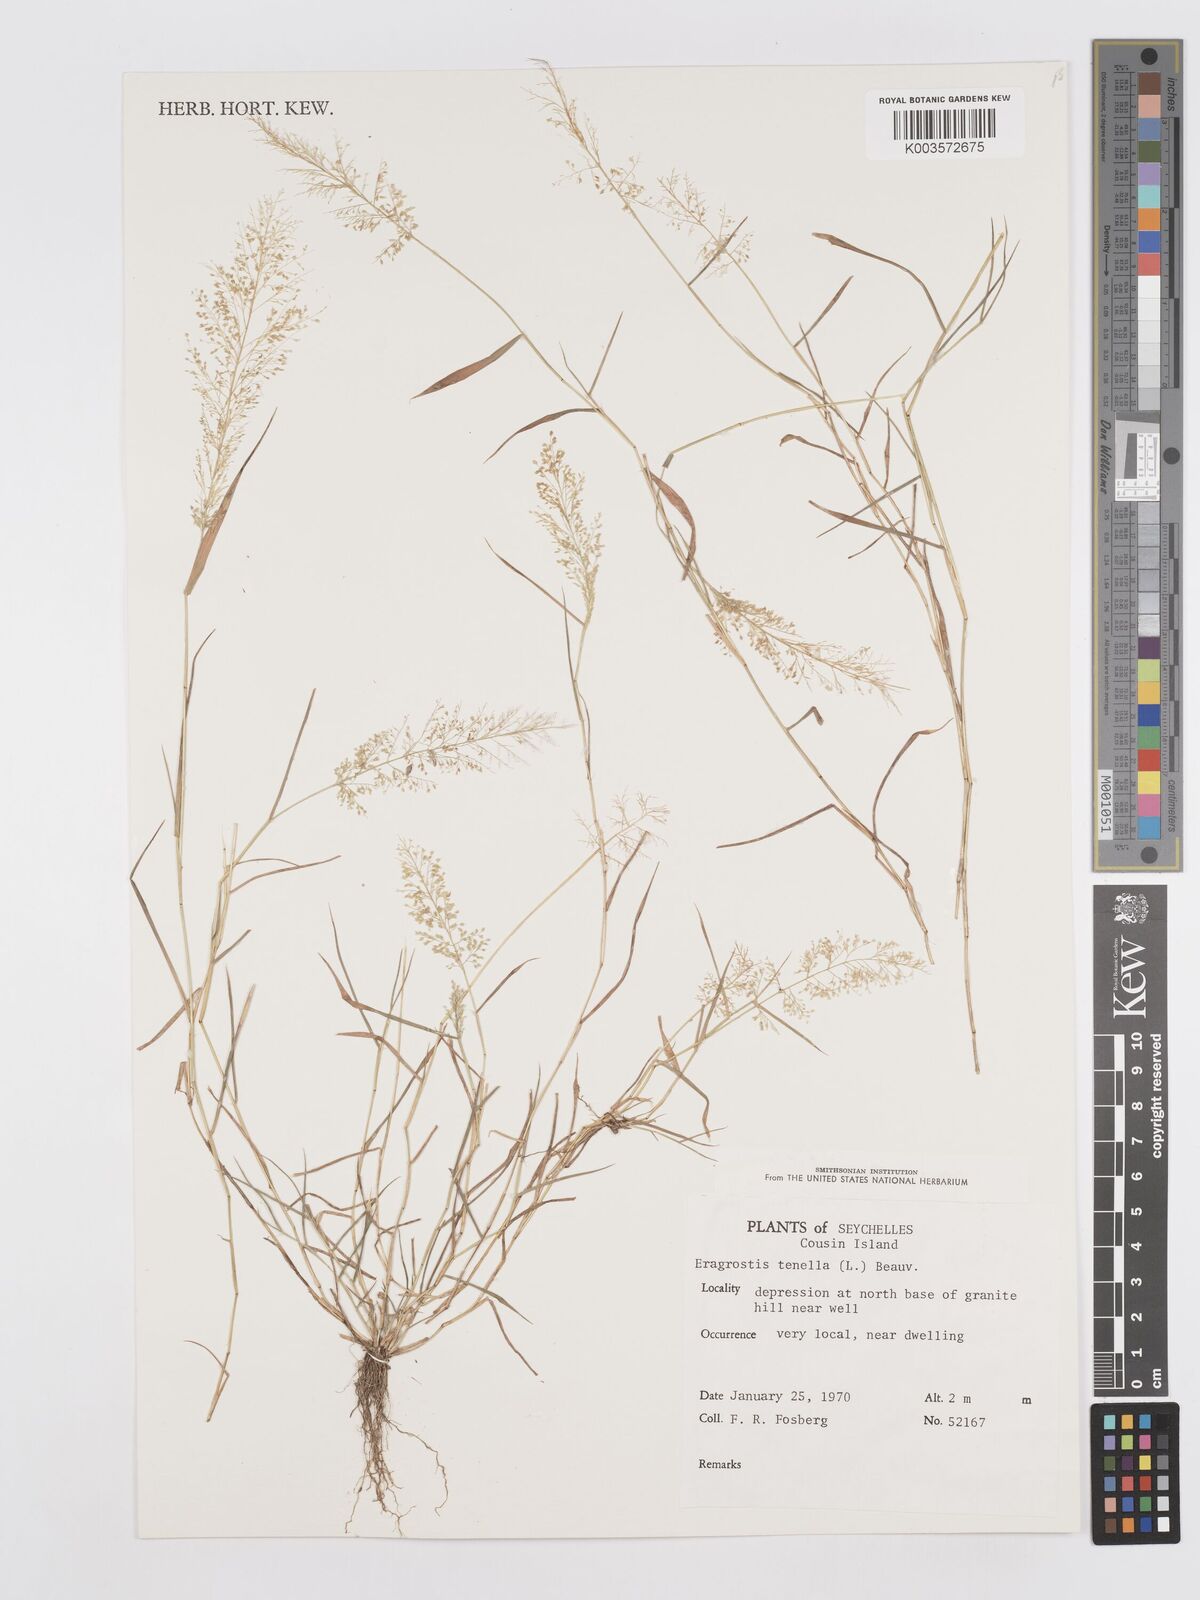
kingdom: Plantae
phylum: Tracheophyta
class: Liliopsida
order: Poales
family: Poaceae
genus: Eragrostis
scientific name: Eragrostis tenella
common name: Japanese lovegrass
